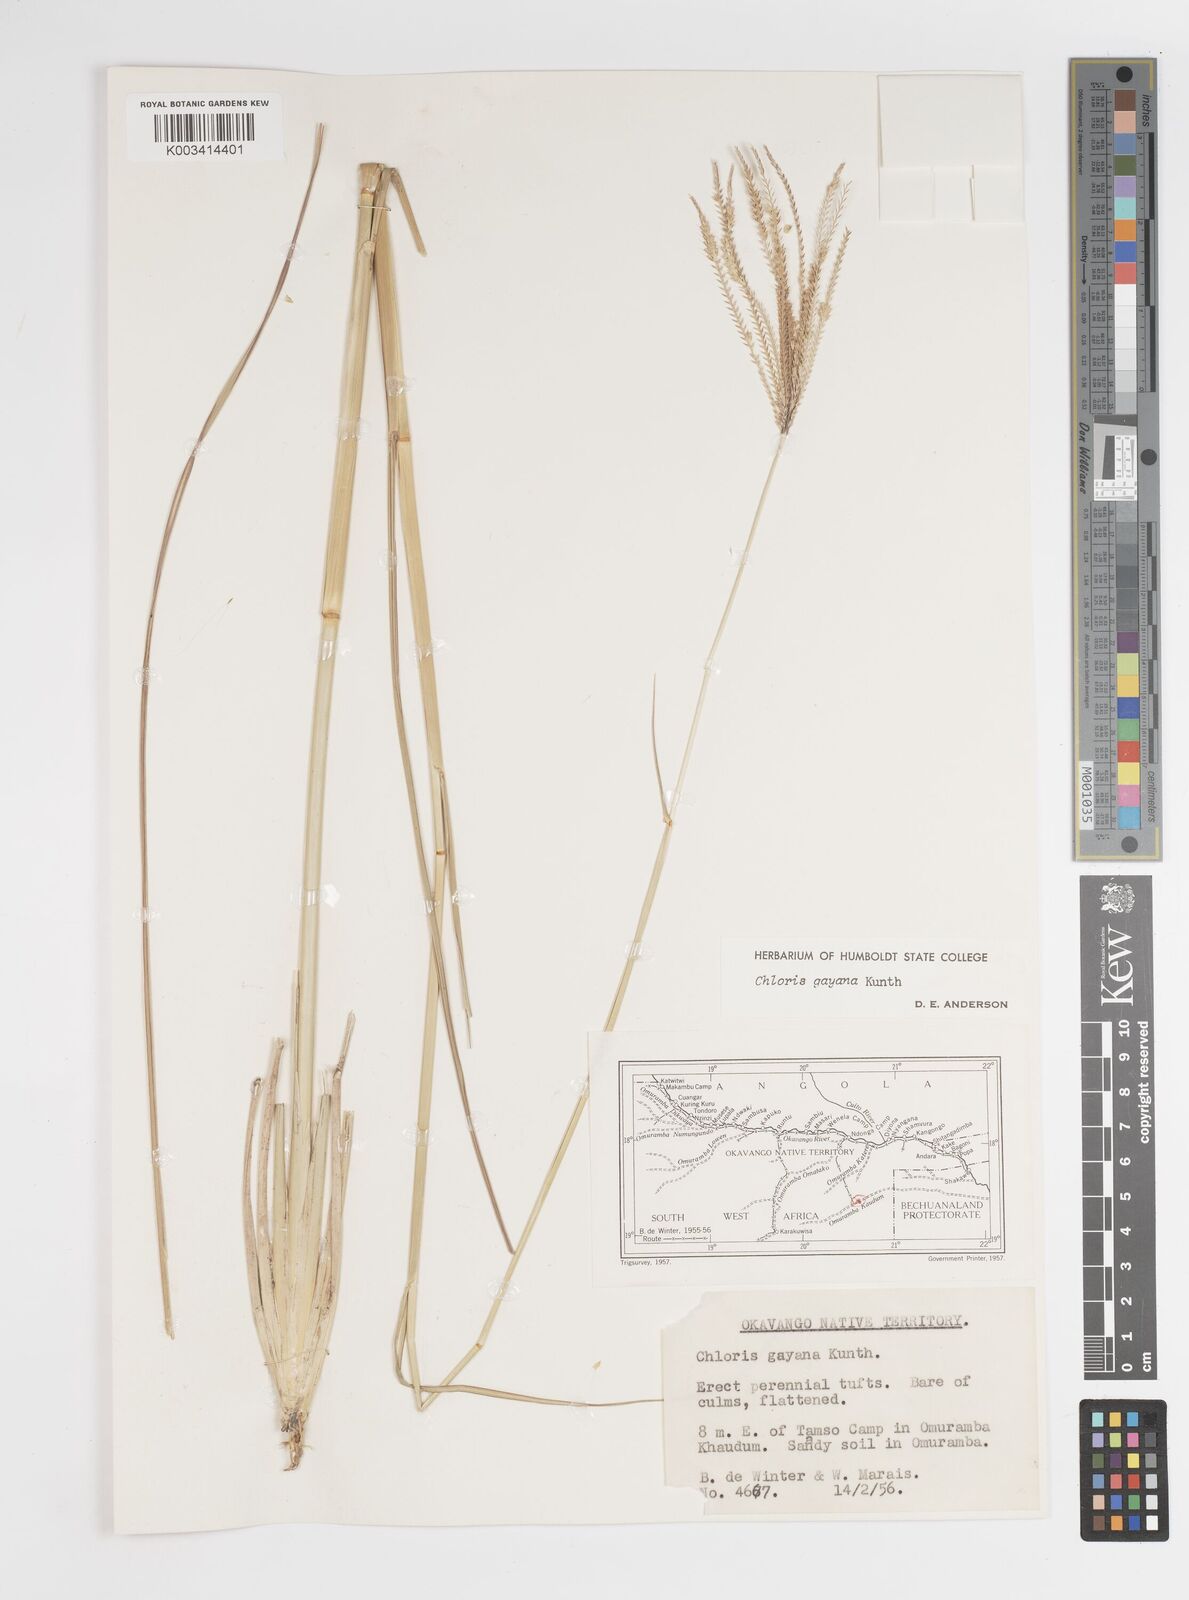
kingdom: Plantae
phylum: Tracheophyta
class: Liliopsida
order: Poales
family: Poaceae
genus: Chloris
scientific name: Chloris gayana
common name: Rhodes grass
